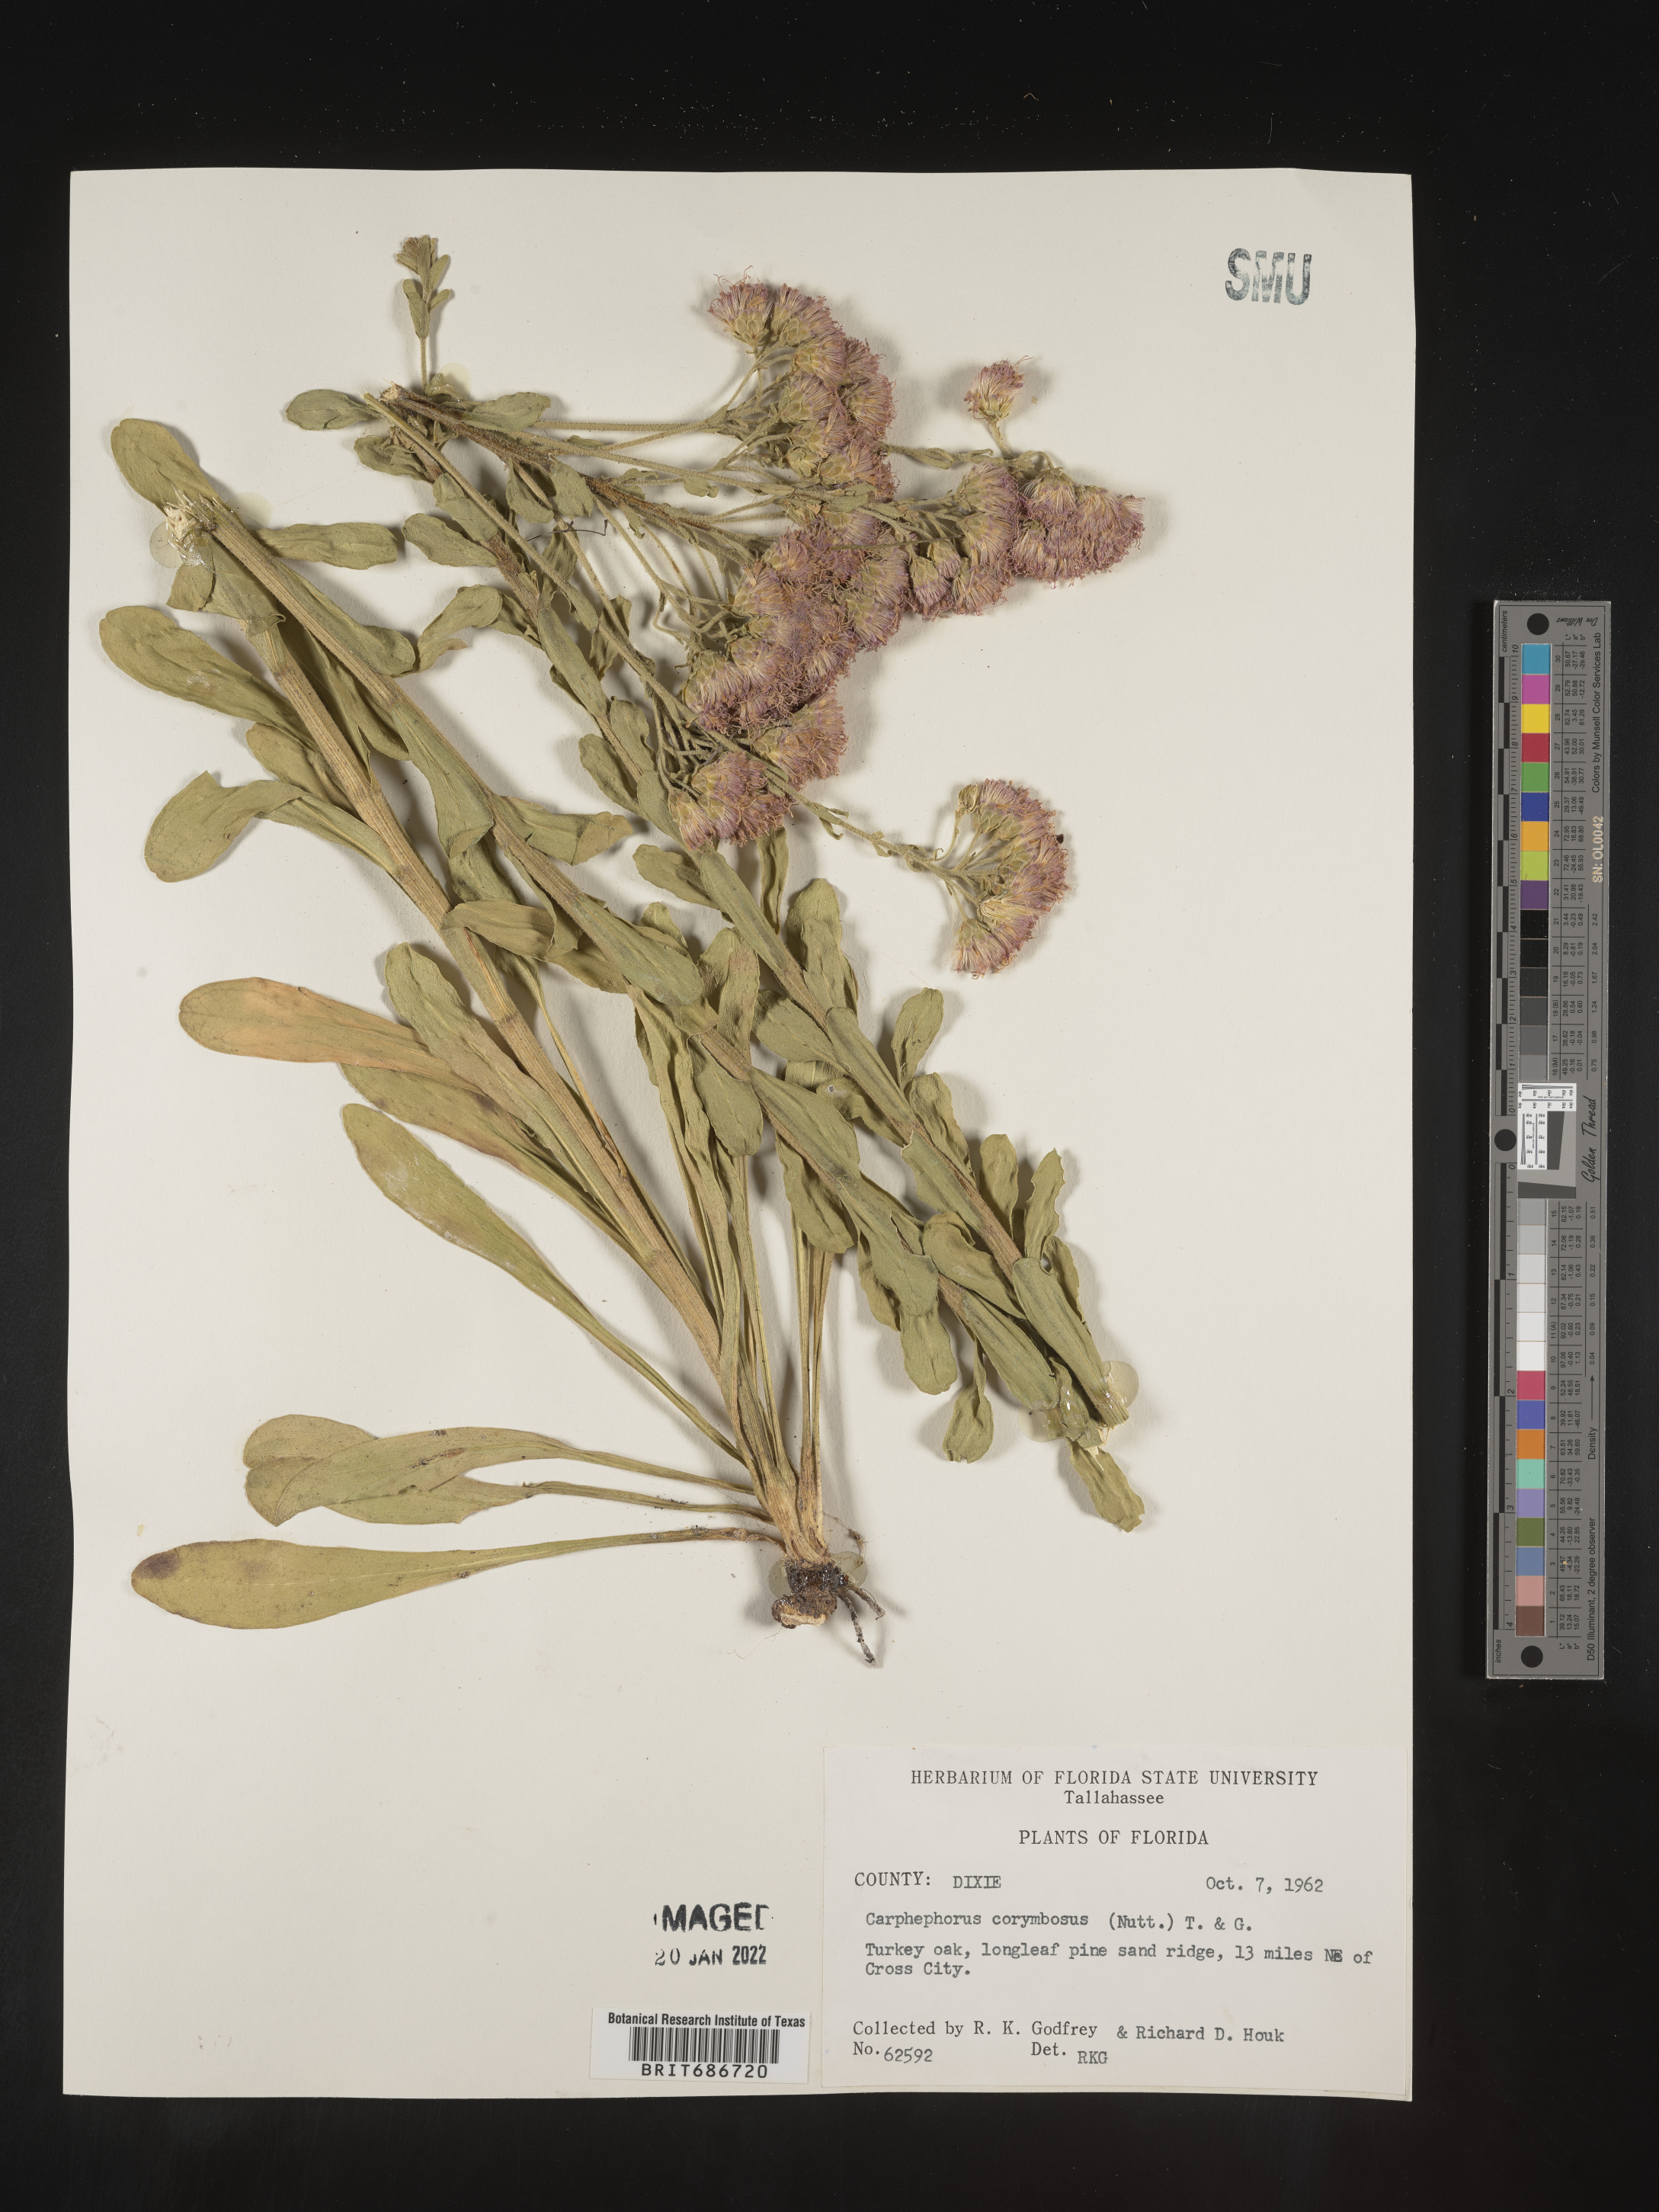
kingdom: Plantae
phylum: Tracheophyta
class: Magnoliopsida
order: Asterales
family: Asteraceae
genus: Carphephorus
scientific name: Carphephorus corymbosus
